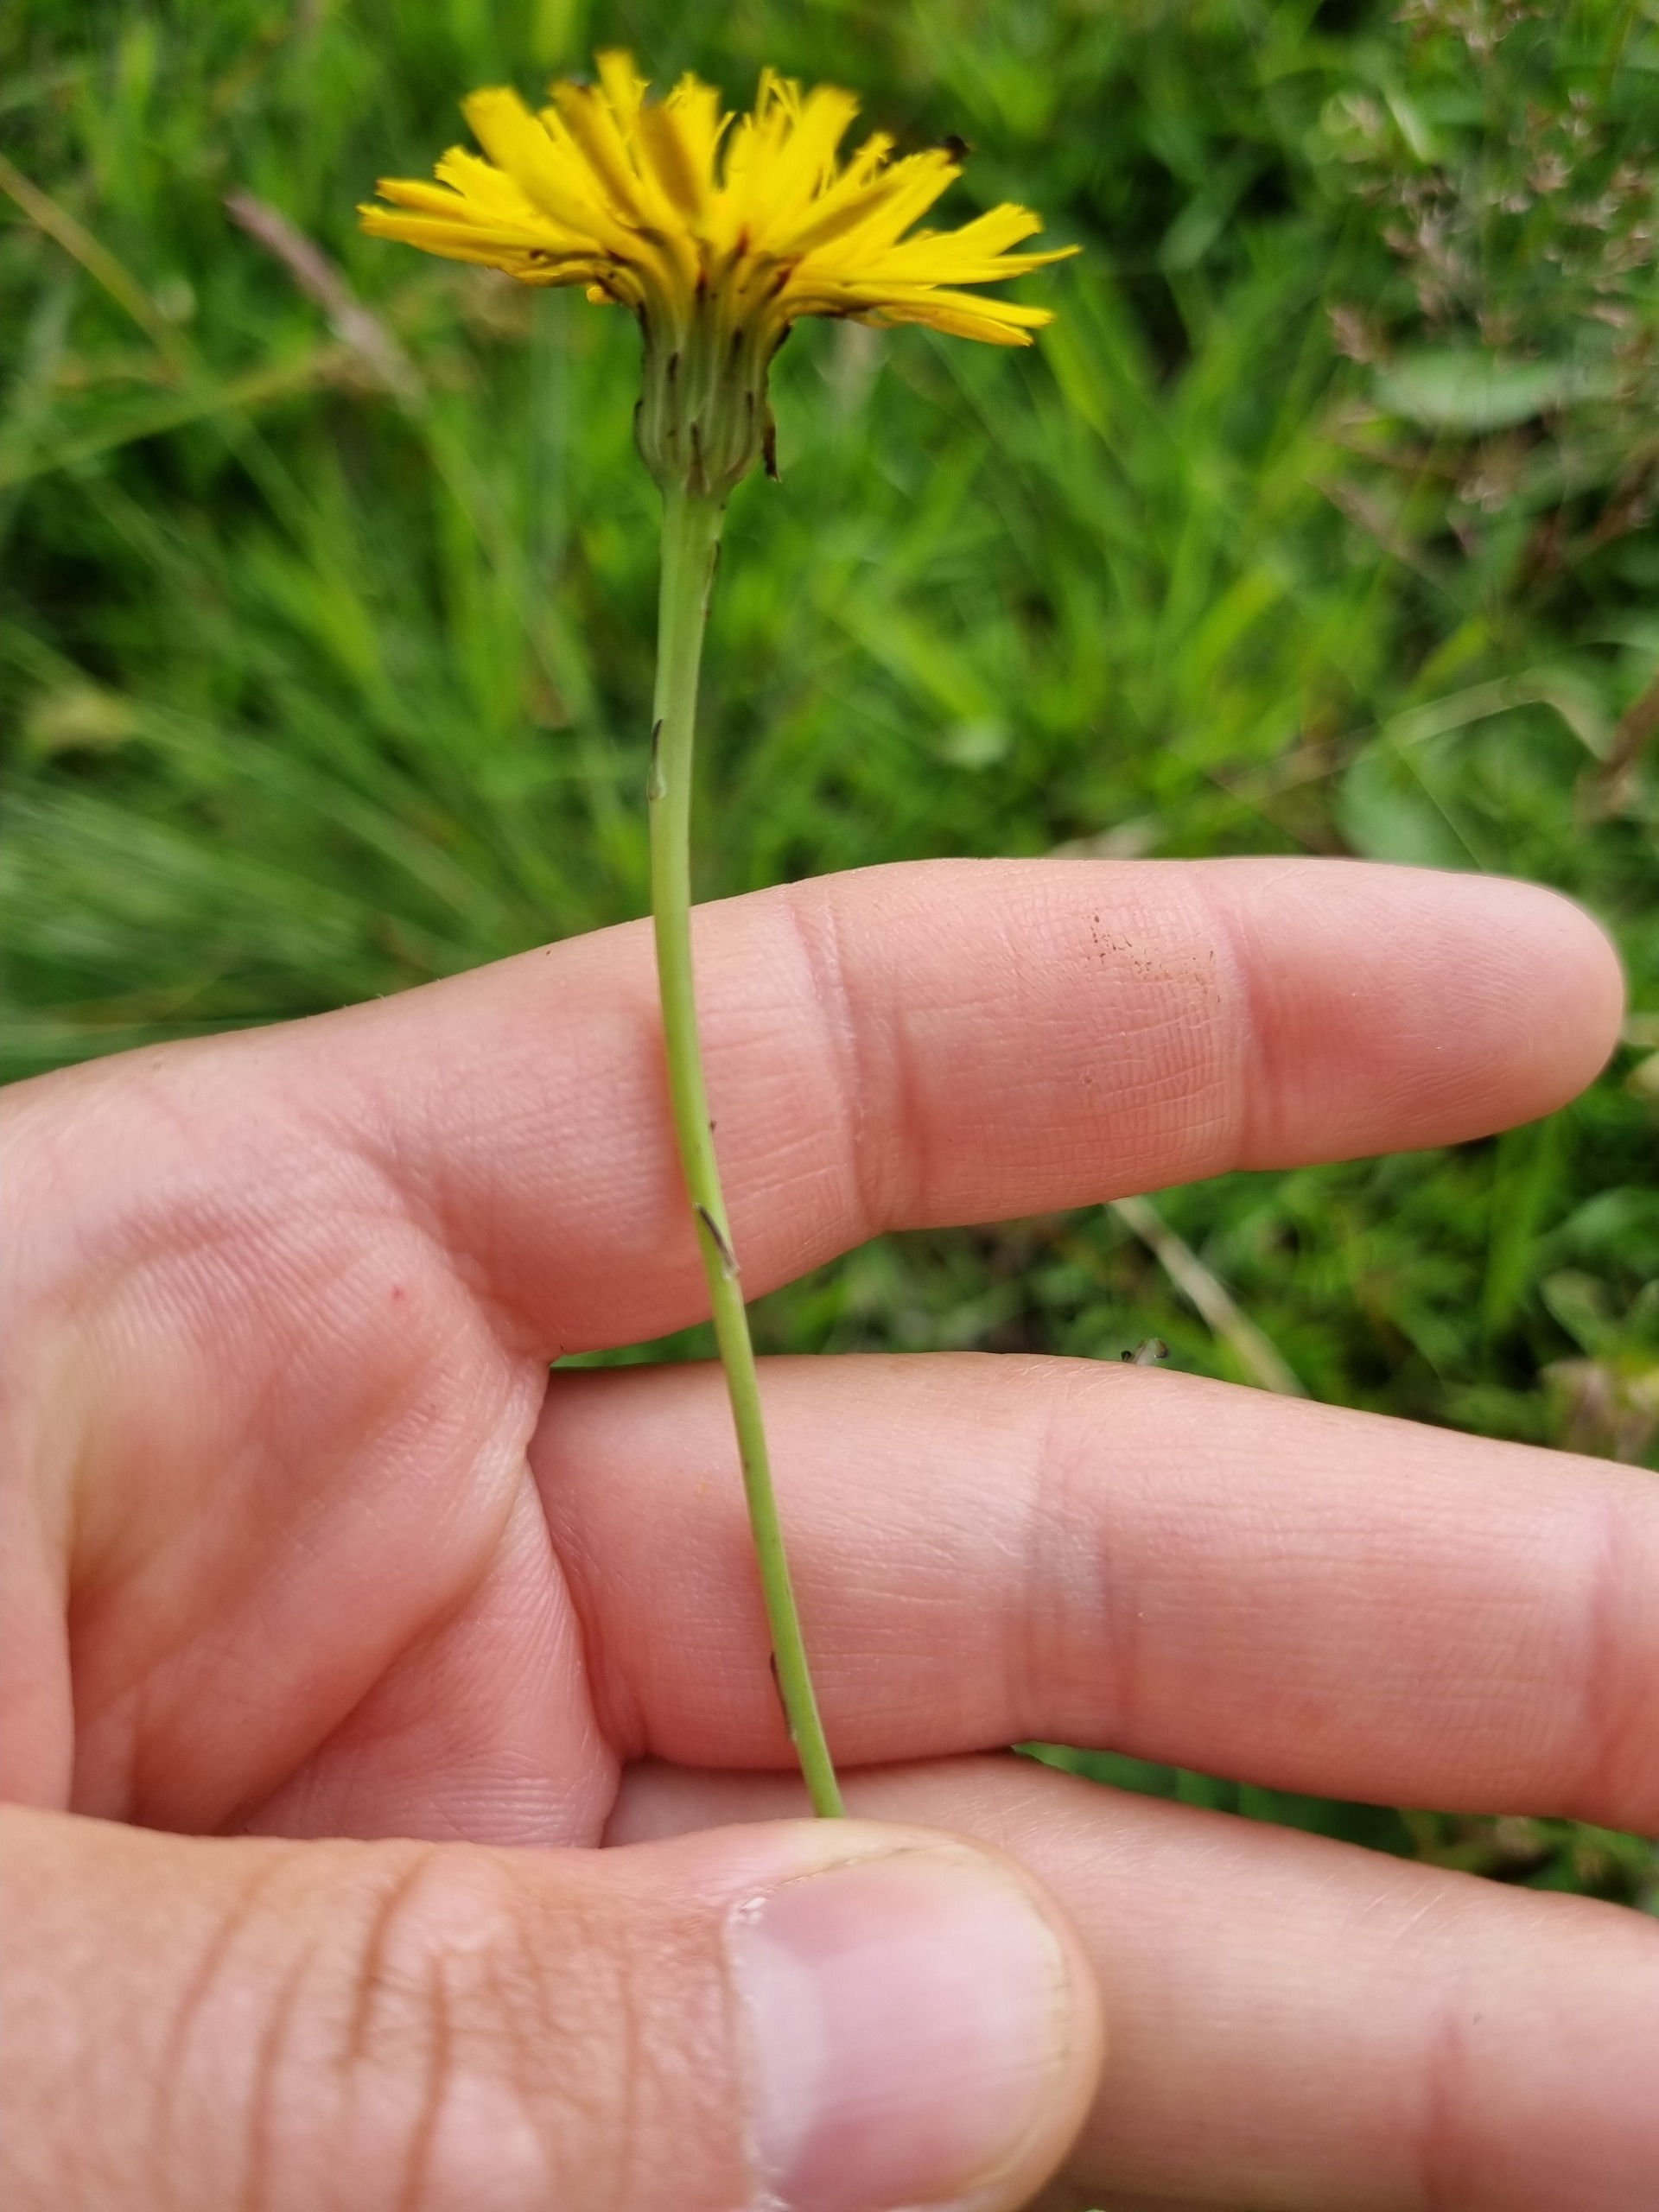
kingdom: Plantae
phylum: Tracheophyta
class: Magnoliopsida
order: Asterales
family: Asteraceae
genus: Hypochaeris
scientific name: Hypochaeris radicata
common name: Almindelig kongepen
